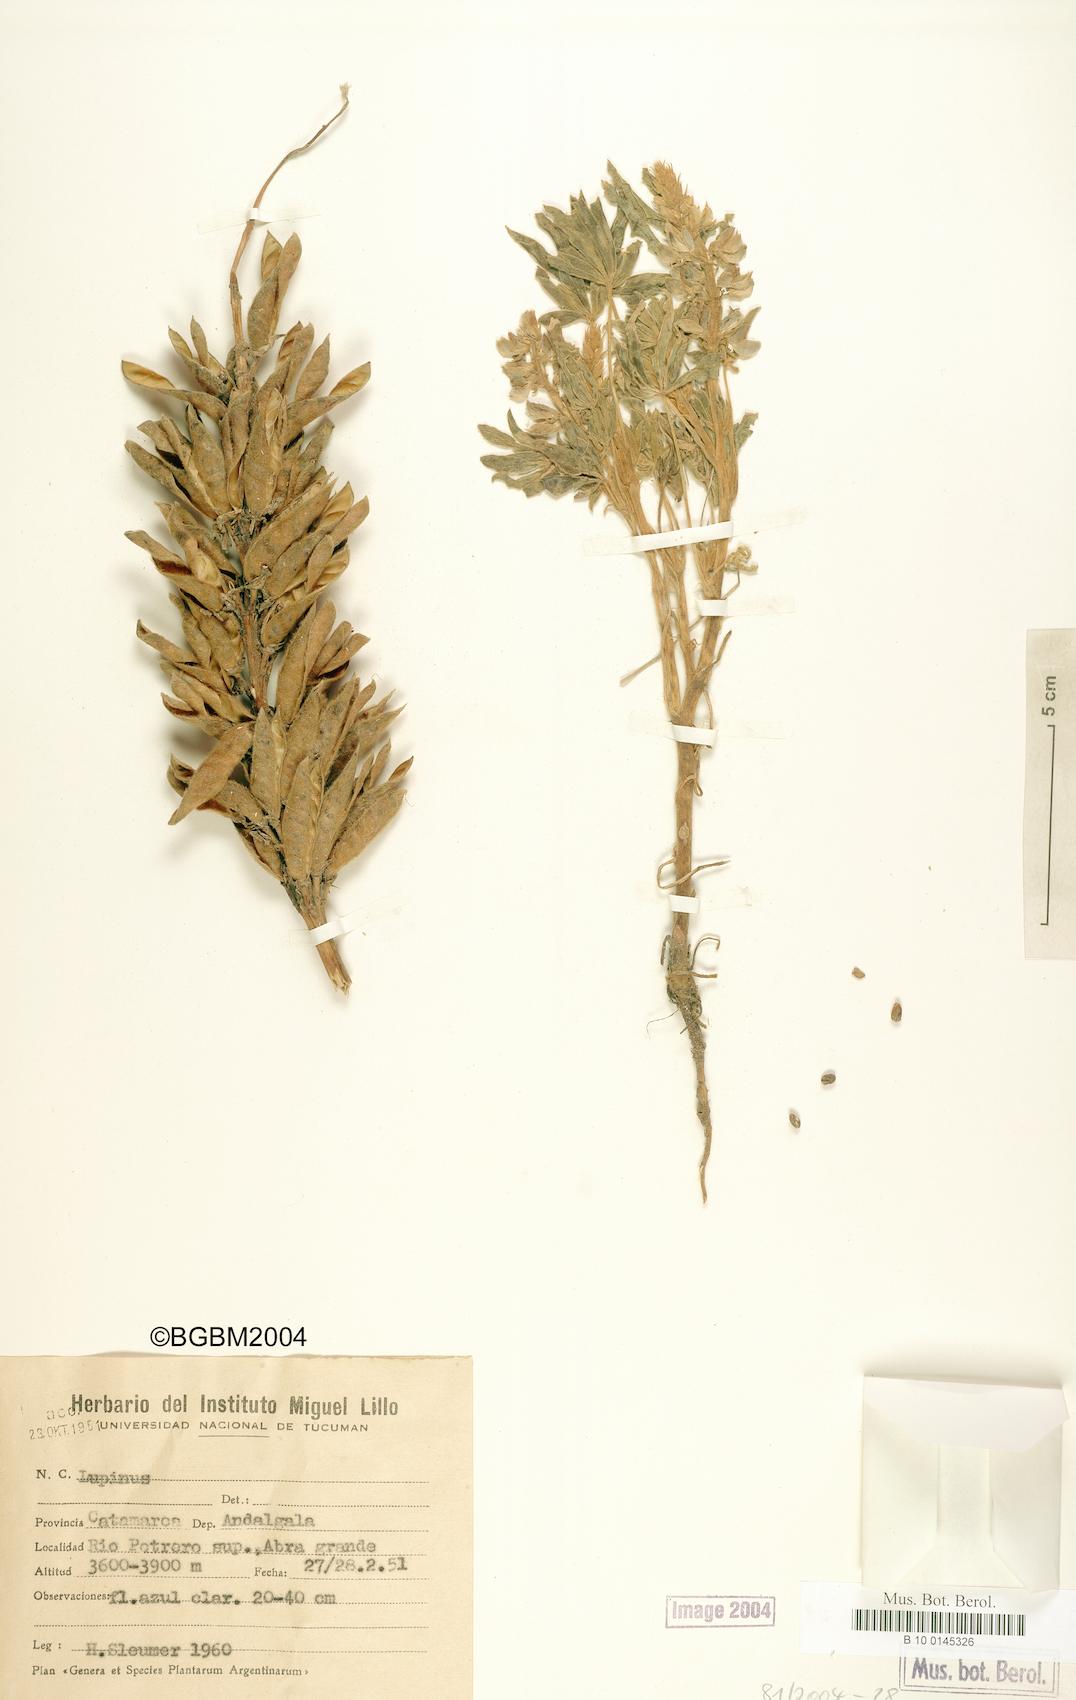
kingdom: Plantae
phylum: Tracheophyta
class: Magnoliopsida
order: Fabales
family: Fabaceae
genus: Lupinus
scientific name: Lupinus
